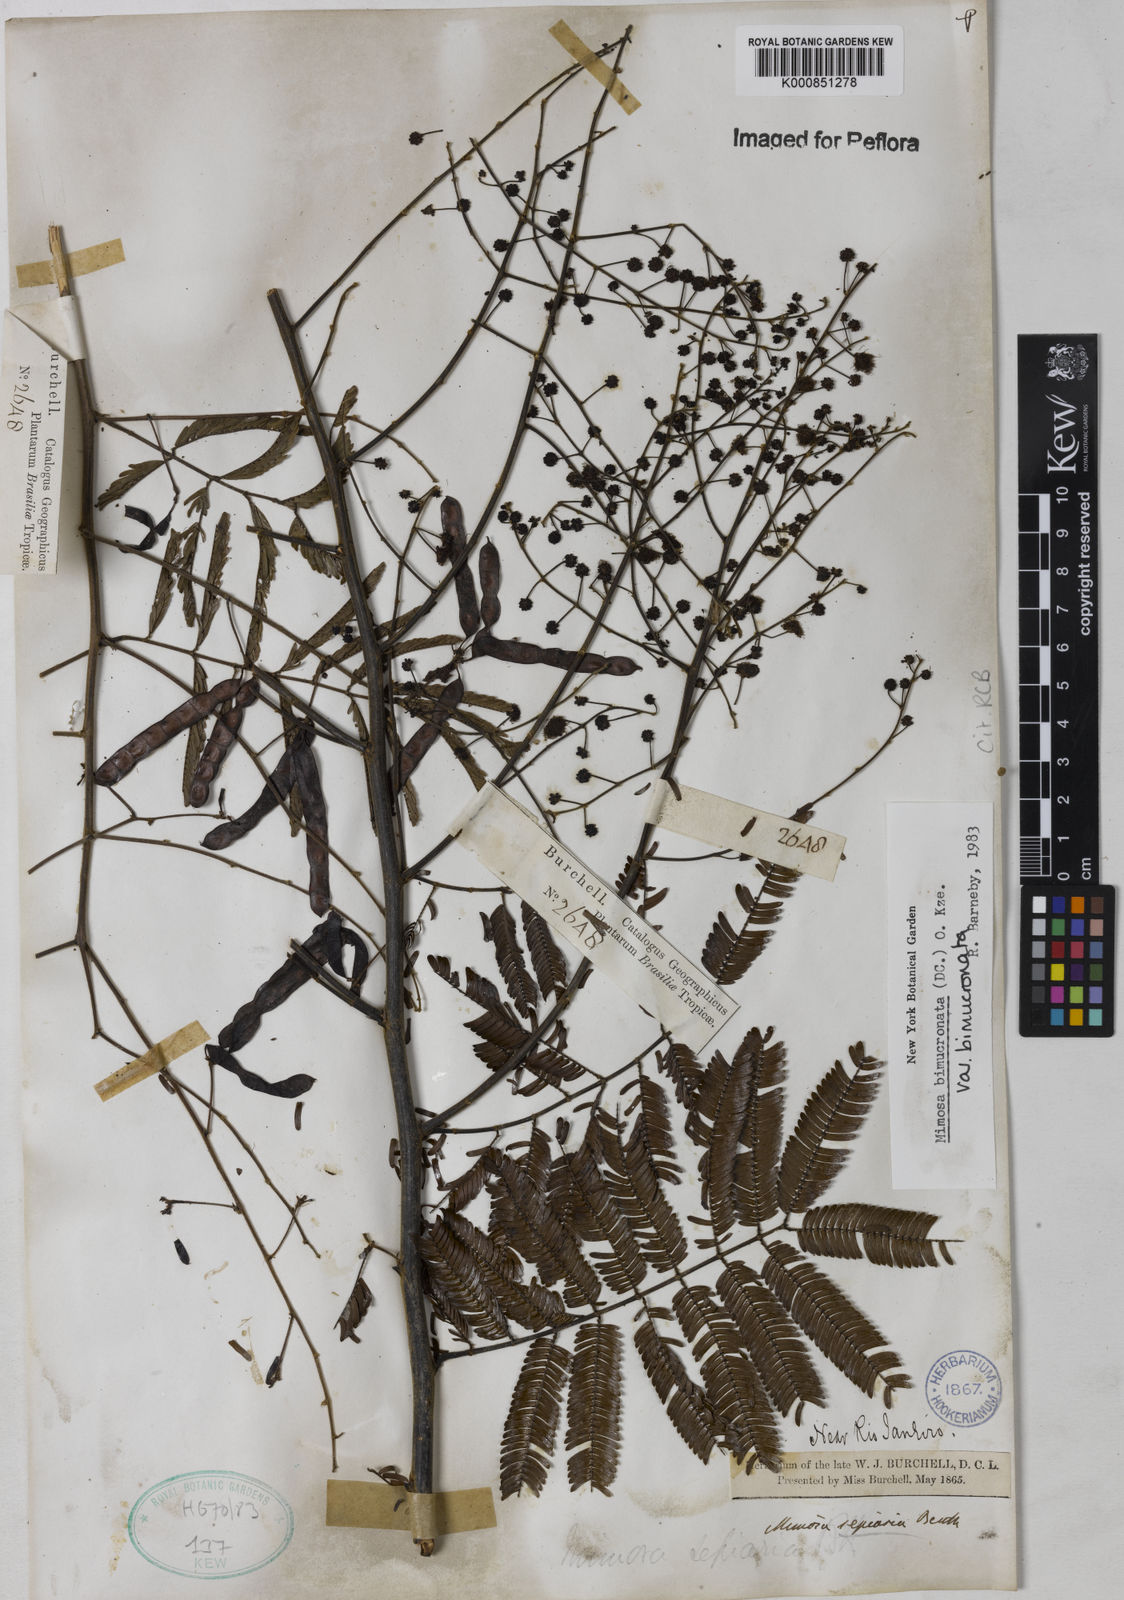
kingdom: Plantae
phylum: Tracheophyta
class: Magnoliopsida
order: Fabales
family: Fabaceae
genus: Mimosa
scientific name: Mimosa bimucronata
